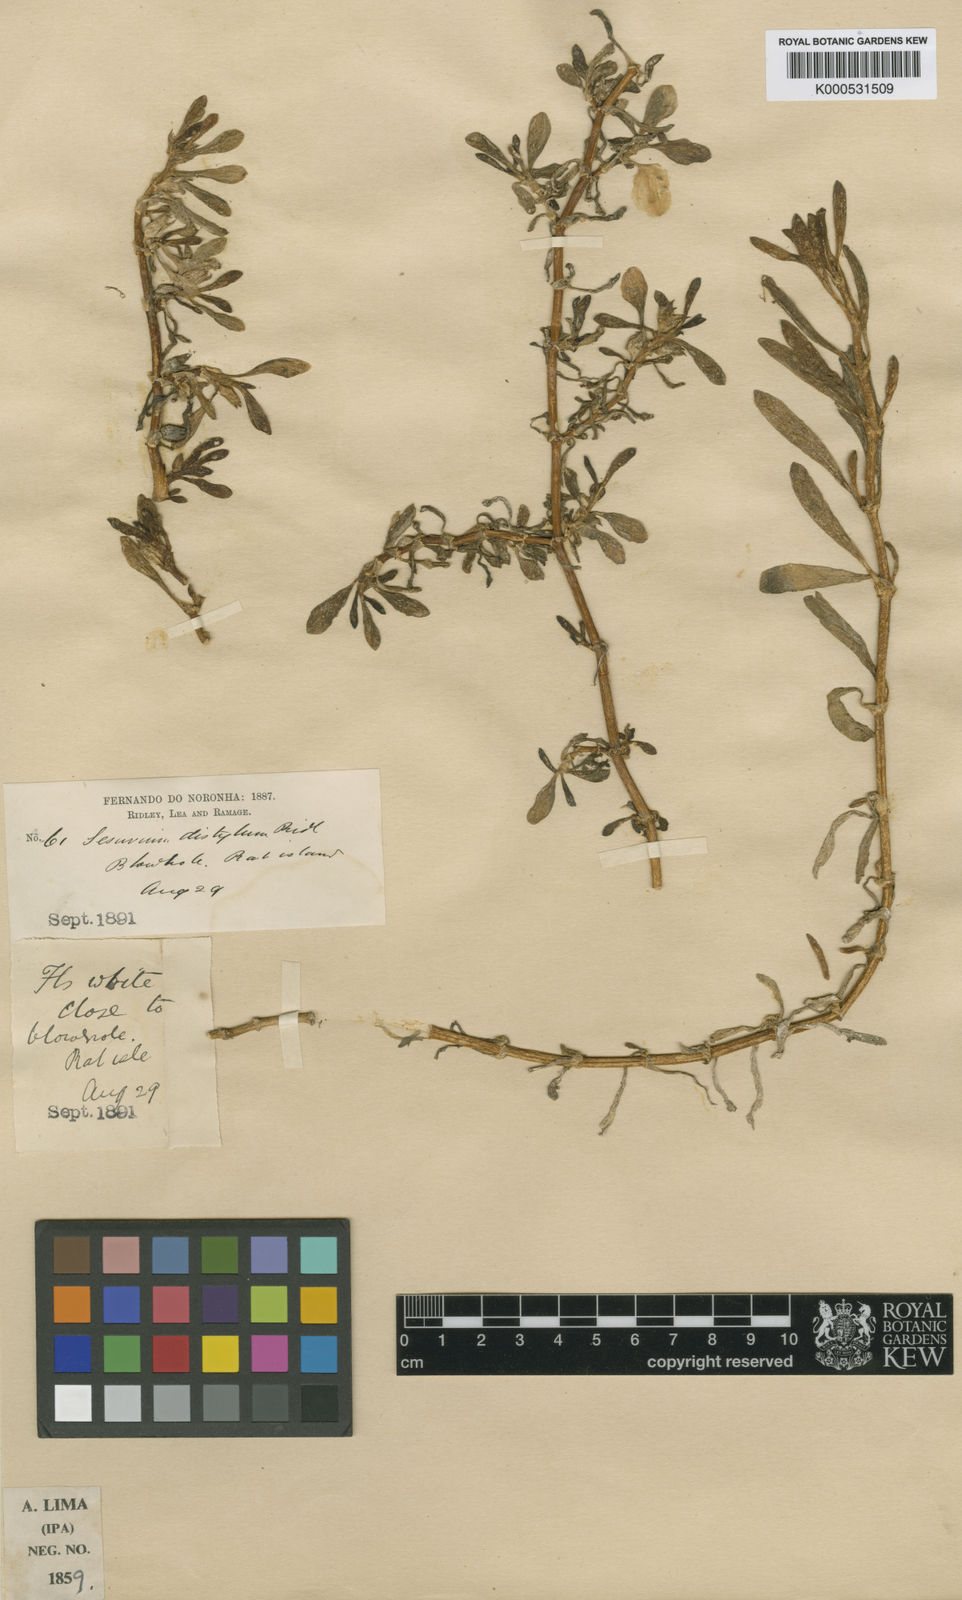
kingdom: Plantae
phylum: Tracheophyta
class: Magnoliopsida
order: Caryophyllales
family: Aizoaceae
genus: Sesuvium
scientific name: Sesuvium portulacastrum
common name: Sea-purslane
